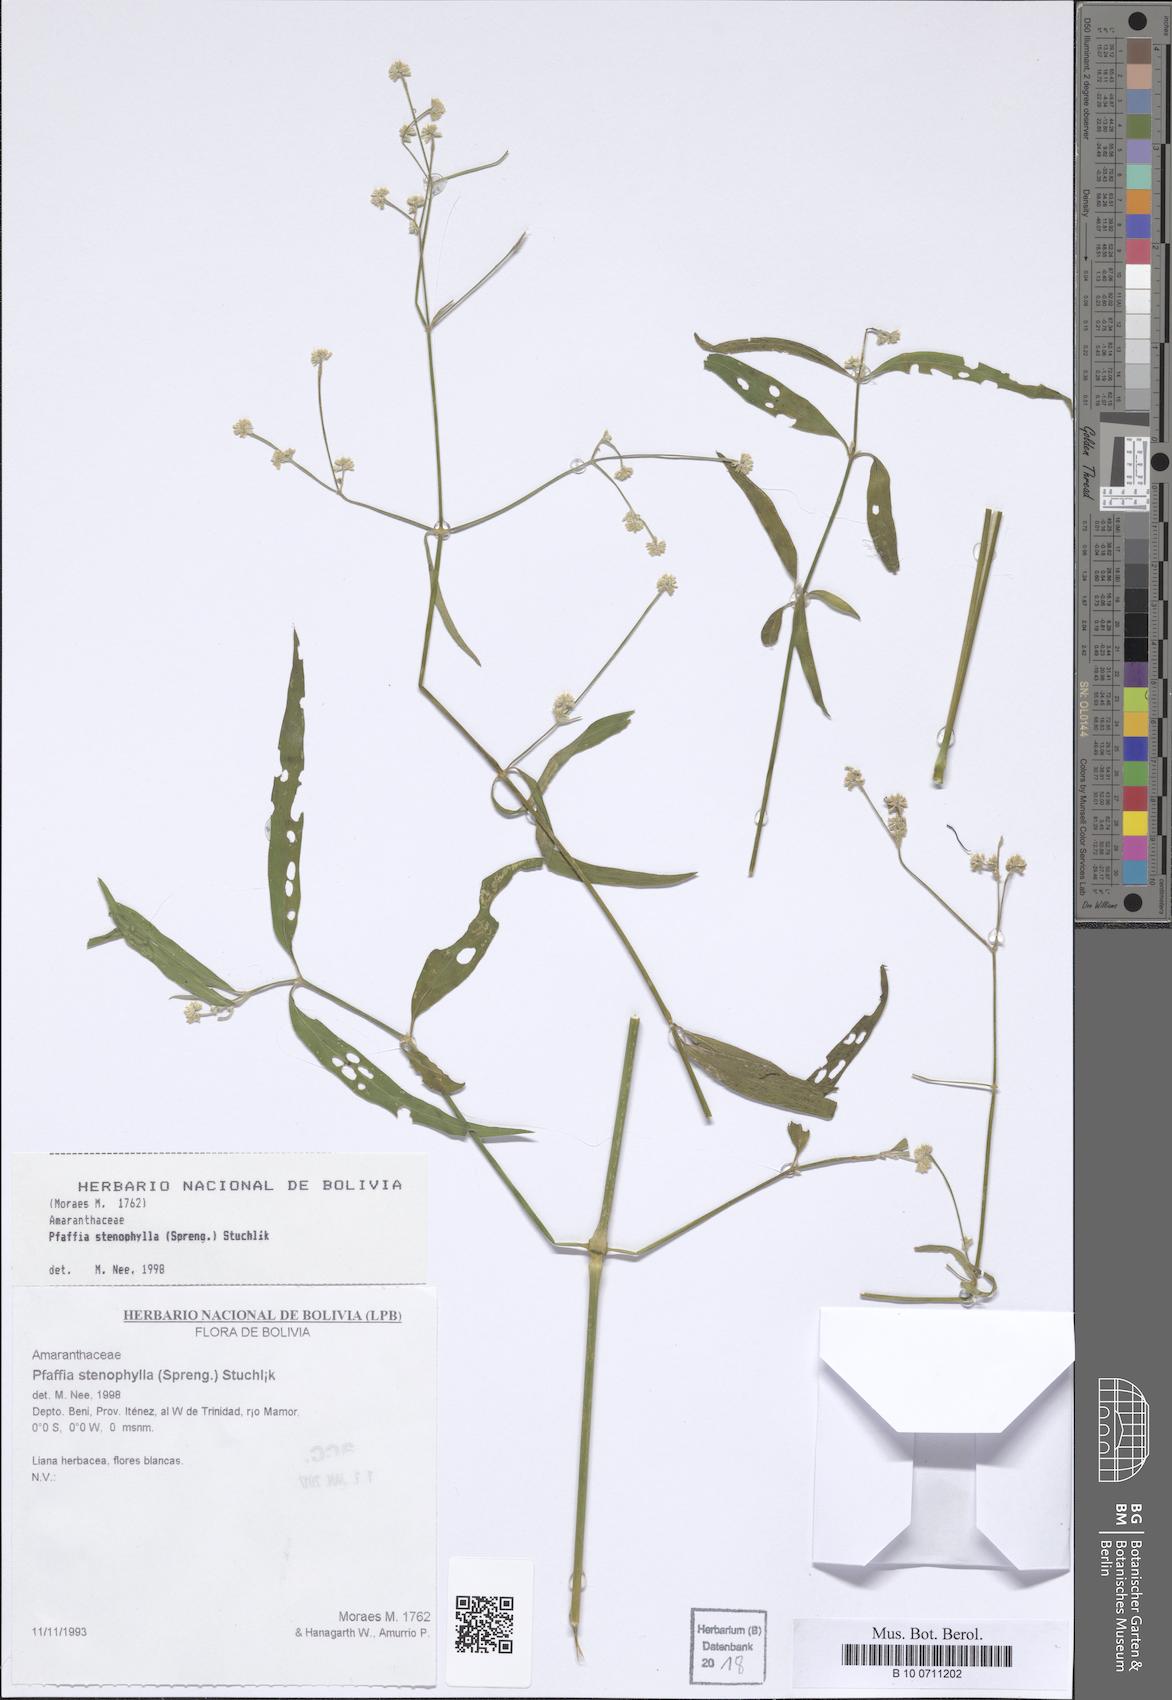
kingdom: Plantae
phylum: Tracheophyta
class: Magnoliopsida
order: Caryophyllales
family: Amaranthaceae
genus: Pfaffia
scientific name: Pfaffia glomerata
